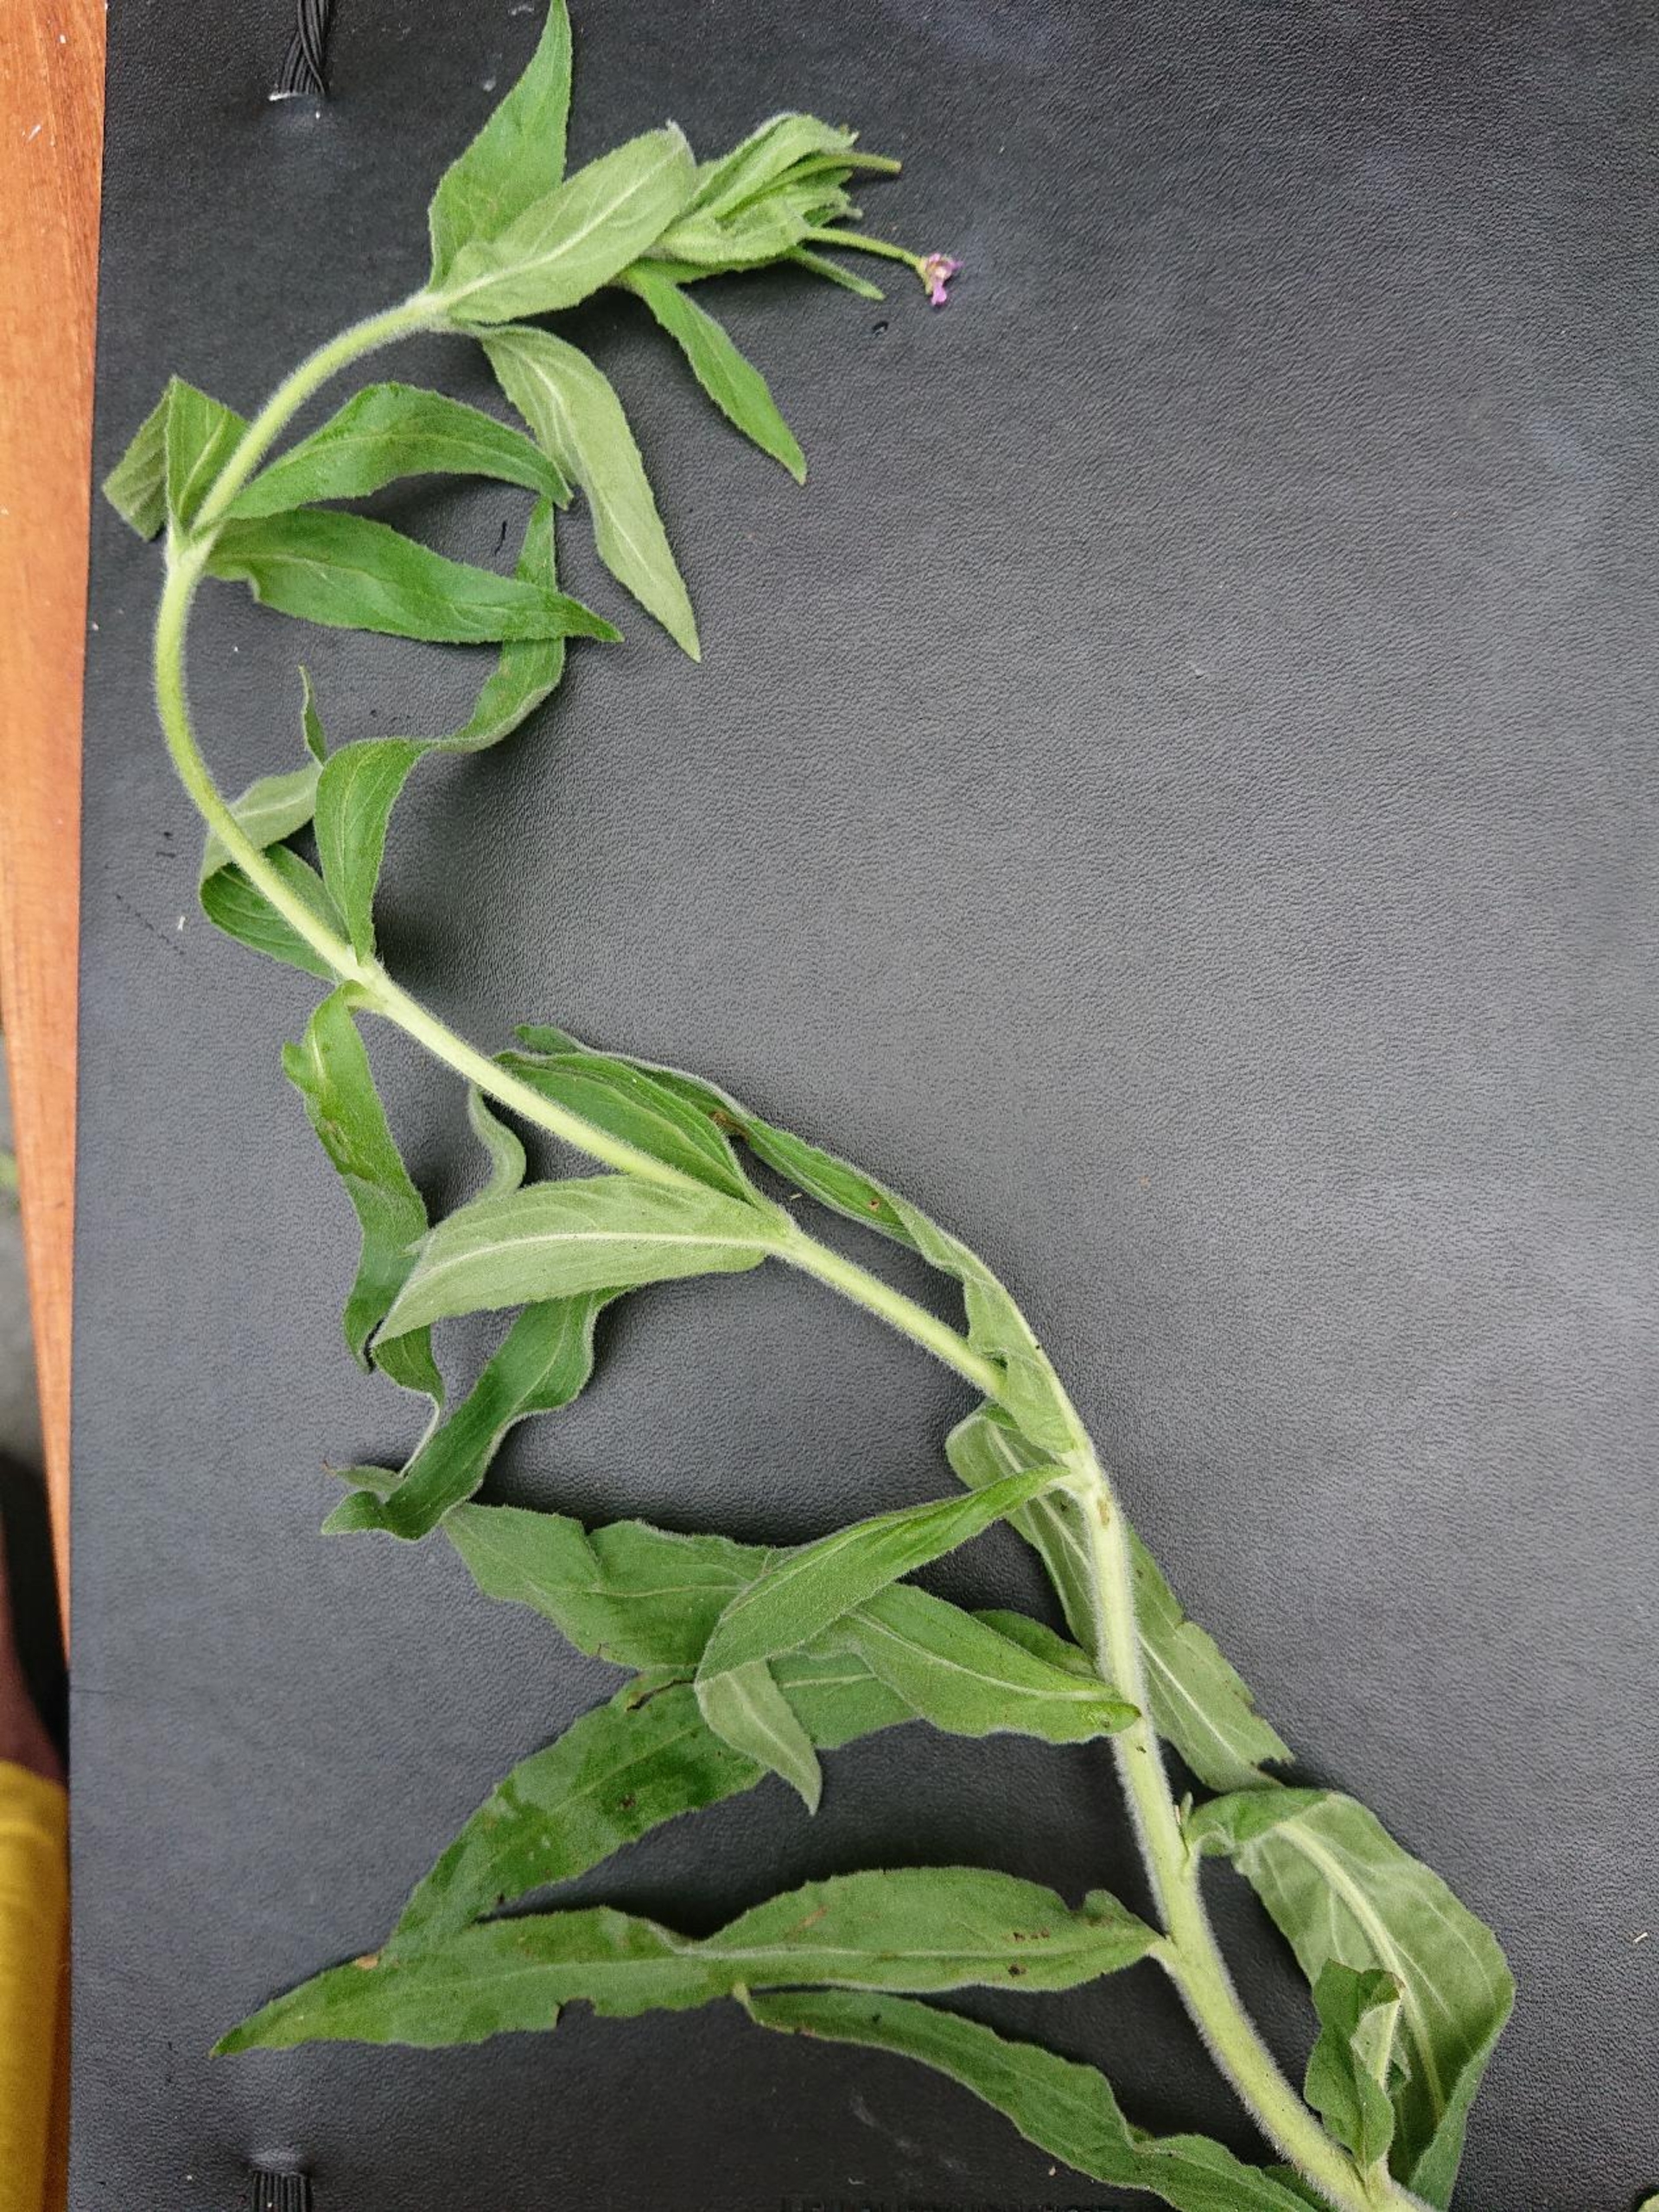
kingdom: Plantae
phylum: Tracheophyta
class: Magnoliopsida
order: Myrtales
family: Onagraceae
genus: Epilobium
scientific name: Epilobium parviflorum
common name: Dunet dueurt
